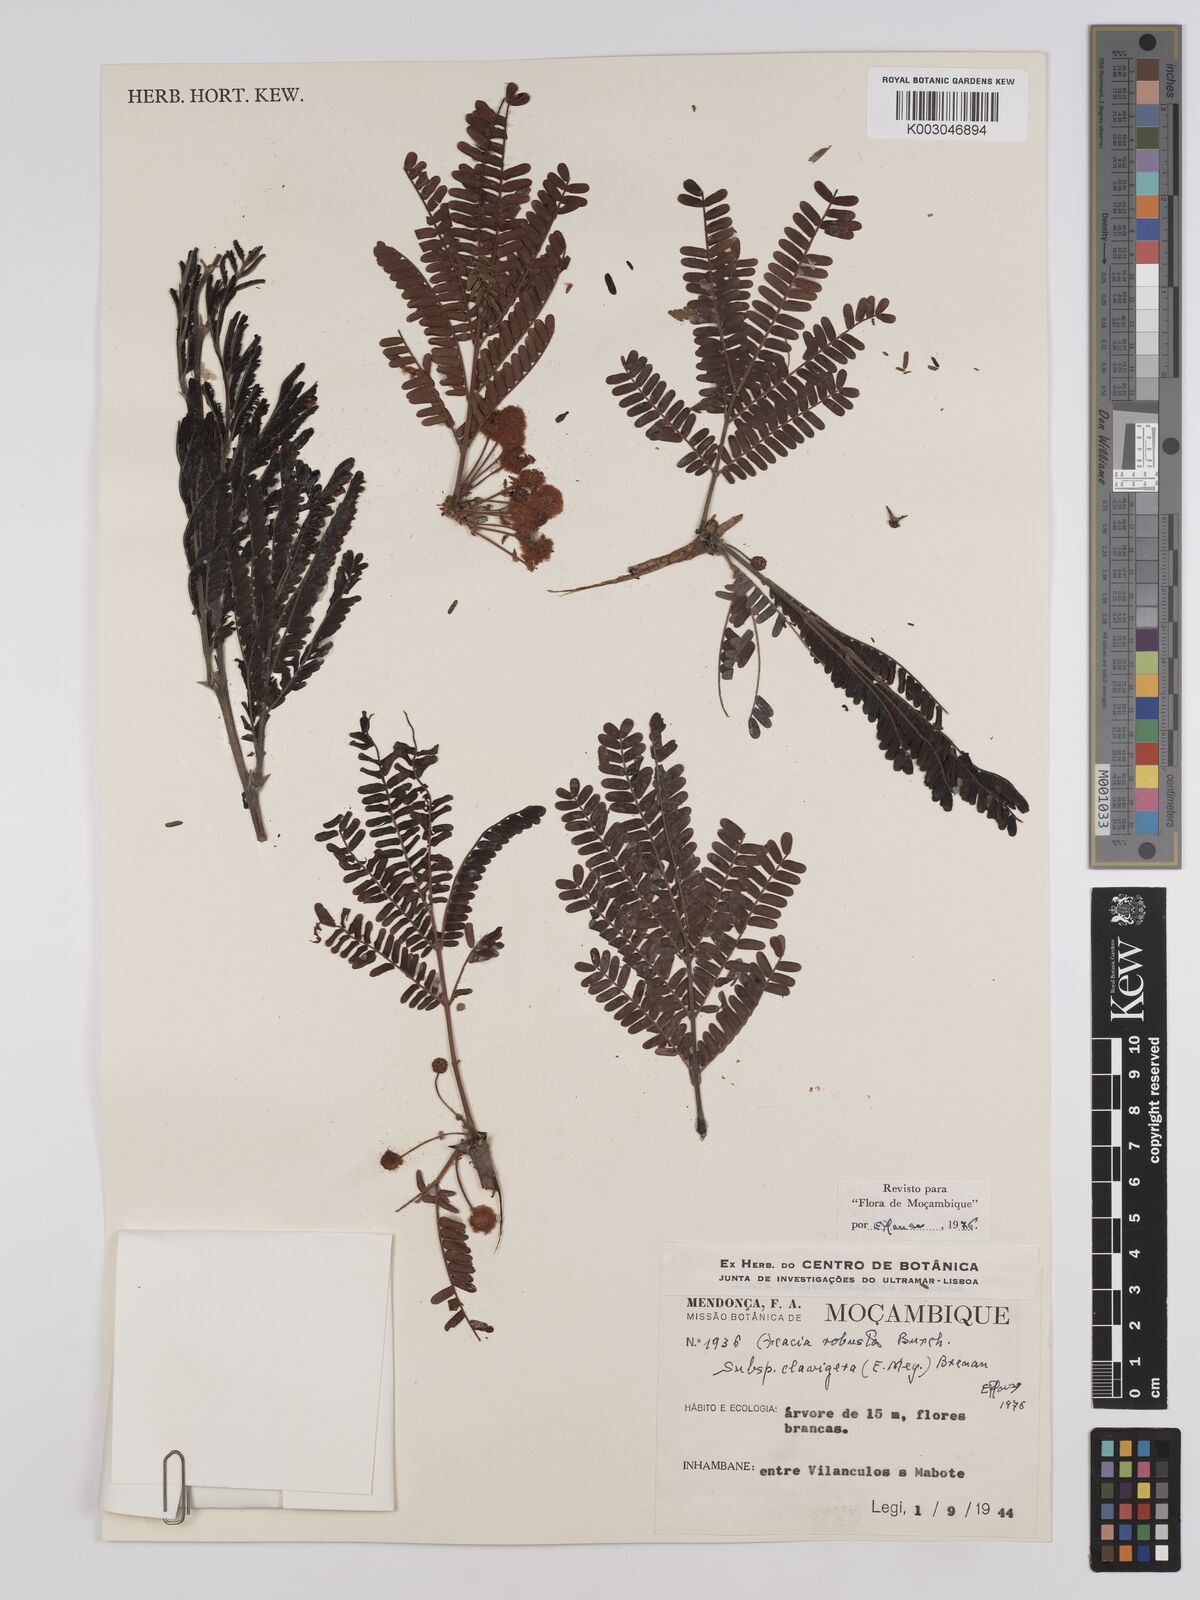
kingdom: Plantae
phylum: Tracheophyta
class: Magnoliopsida
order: Fabales
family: Fabaceae
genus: Vachellia
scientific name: Vachellia robusta
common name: Ankle thorn
